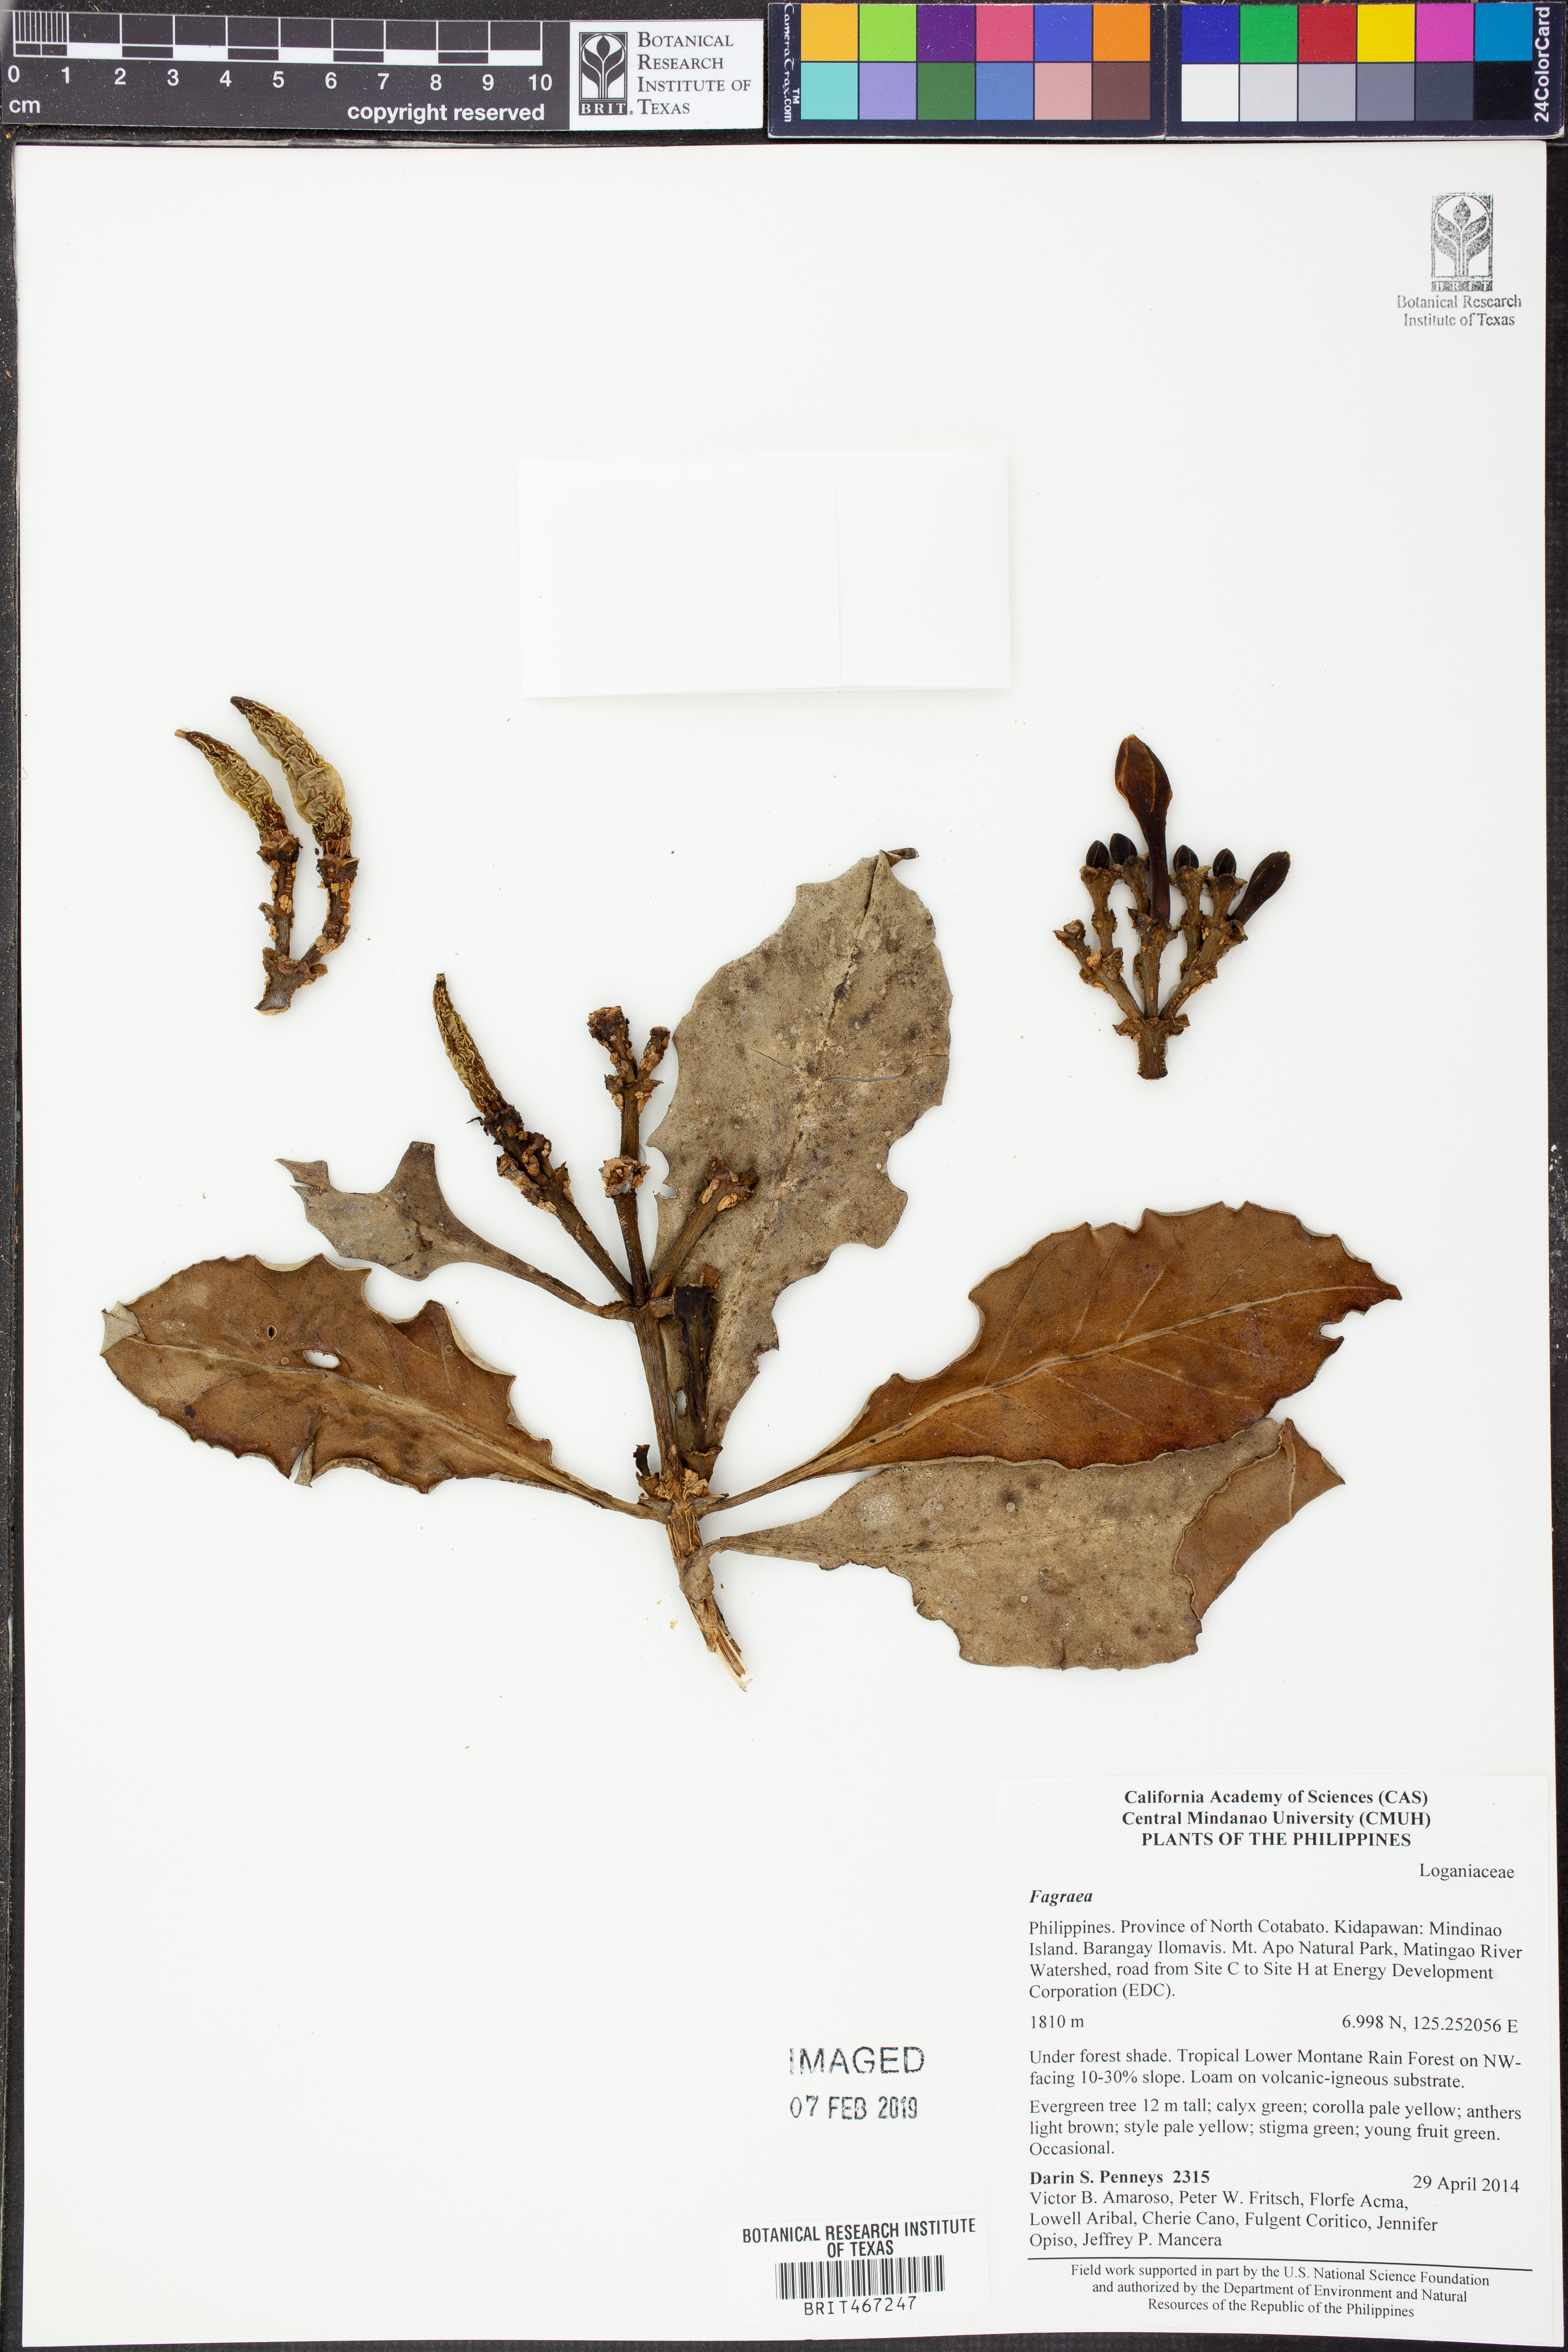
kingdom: Plantae
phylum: Tracheophyta
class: Magnoliopsida
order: Gentianales
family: Gentianaceae
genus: Fagraea
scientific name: Fagraea
